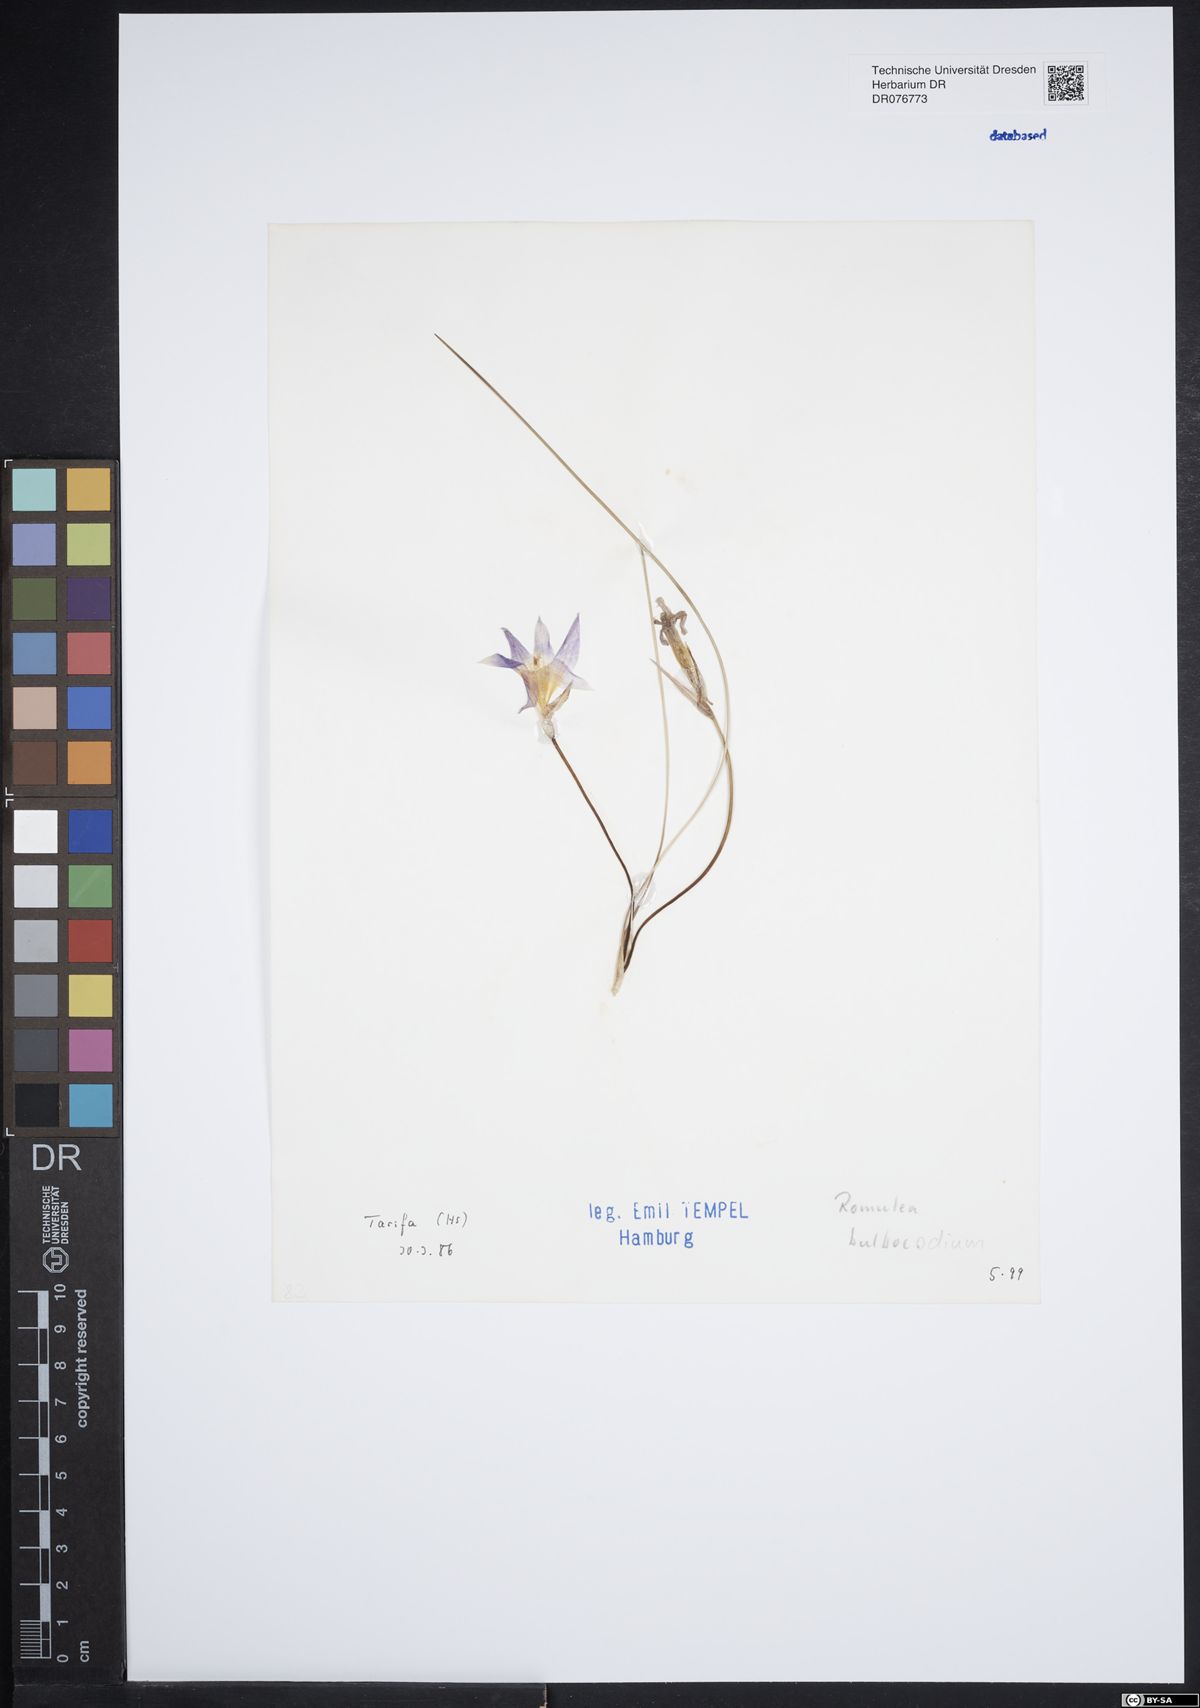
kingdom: Plantae
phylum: Tracheophyta
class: Liliopsida
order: Asparagales
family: Iridaceae
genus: Romulea
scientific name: Romulea bulbocodium
